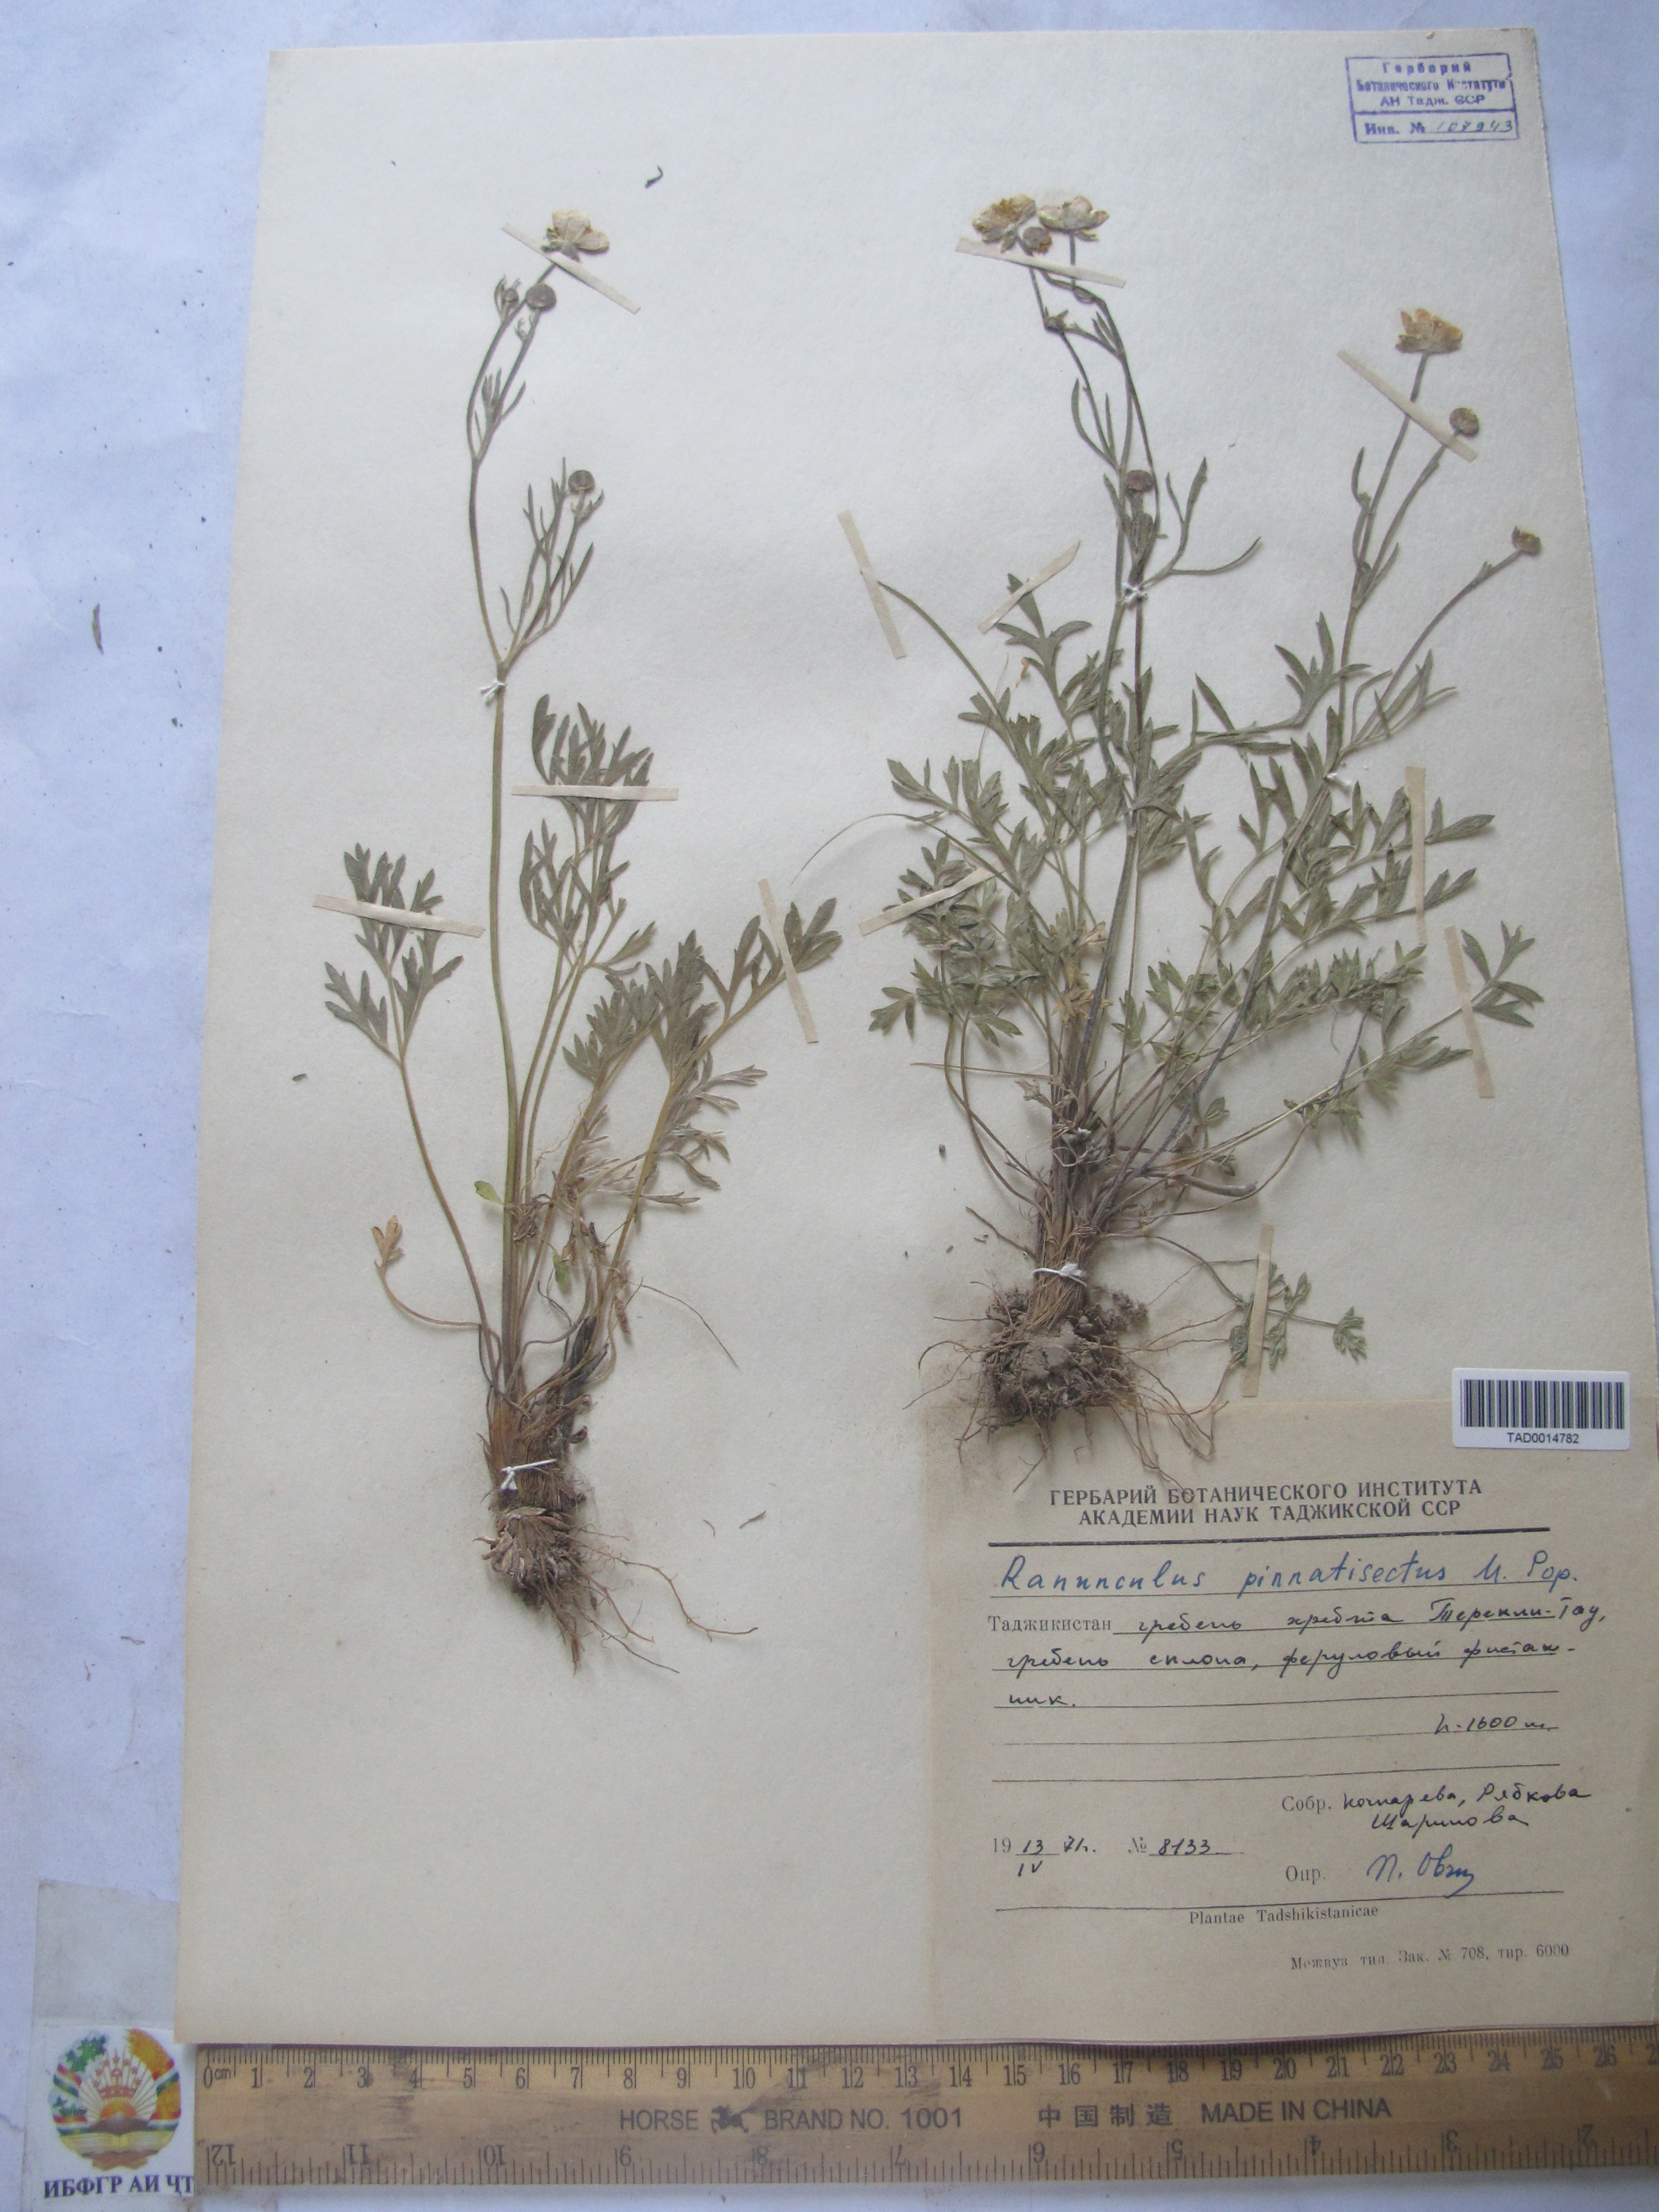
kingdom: Plantae
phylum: Tracheophyta
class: Magnoliopsida
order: Ranunculales
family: Ranunculaceae
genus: Ranunculus
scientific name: Ranunculus pinnatisectus
